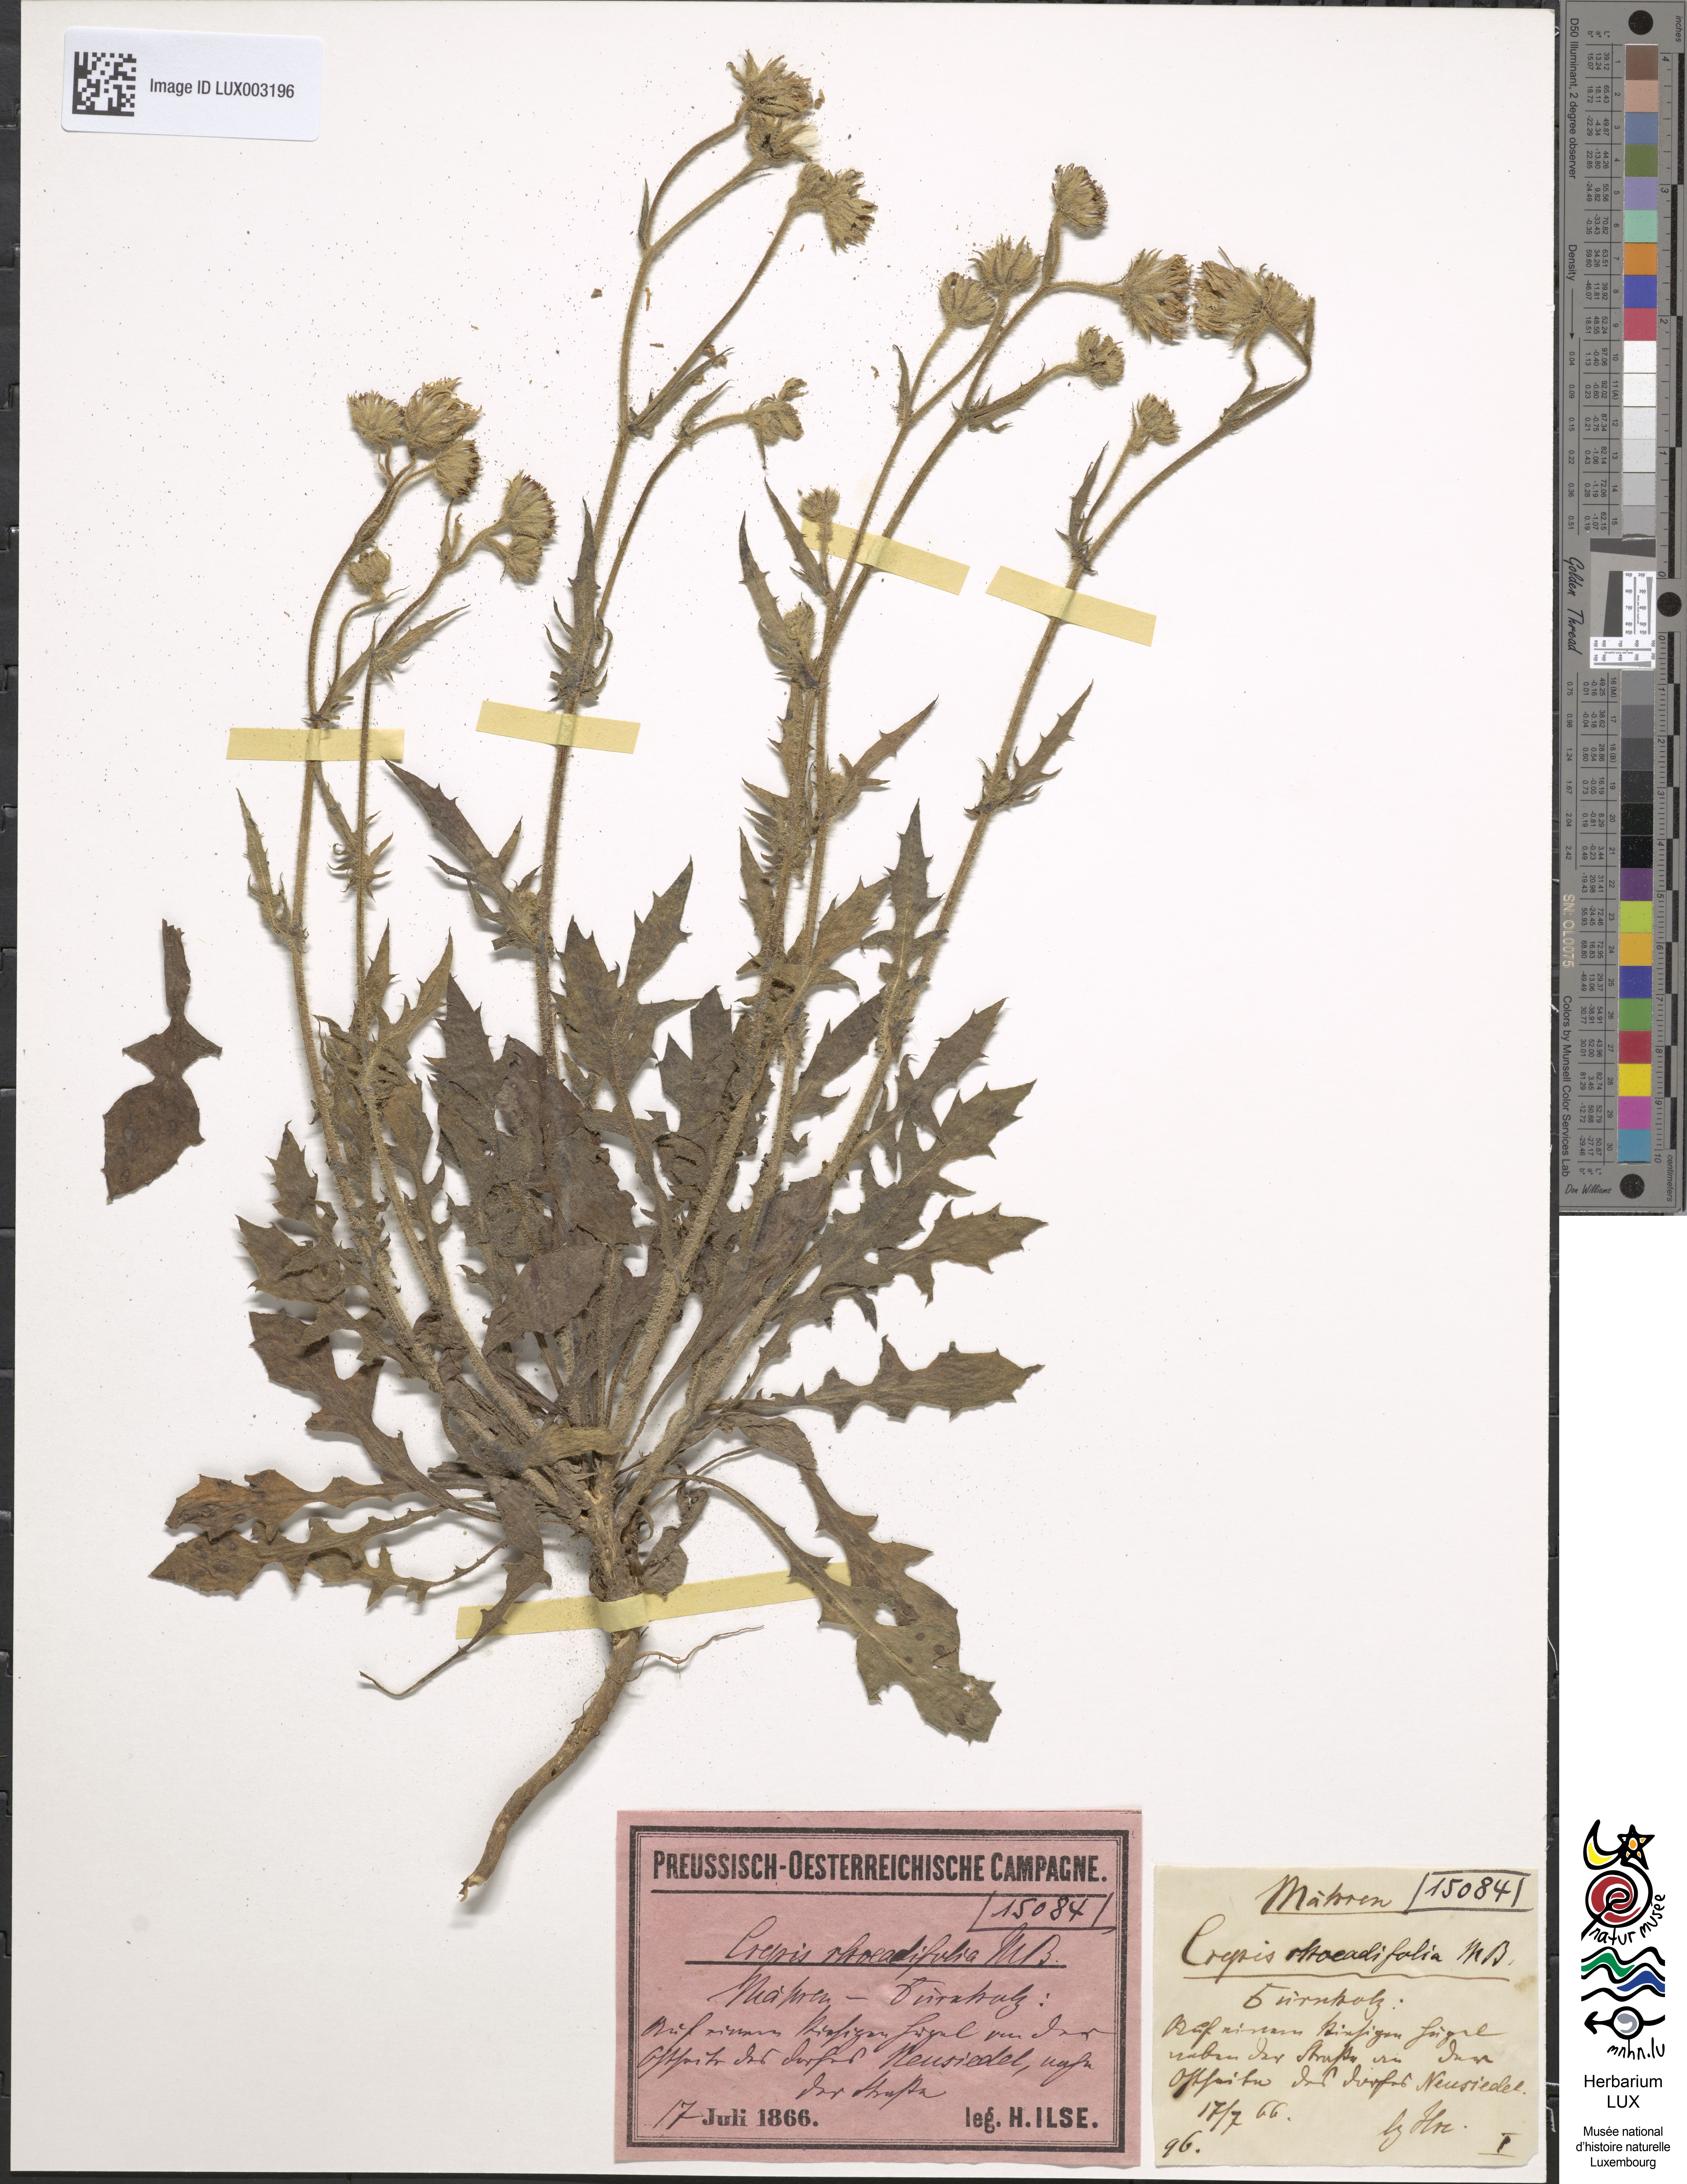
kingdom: Plantae
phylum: Tracheophyta
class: Magnoliopsida
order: Asterales
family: Asteraceae
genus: Crepis
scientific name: Crepis foetida
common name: Stinking hawk's-beard
